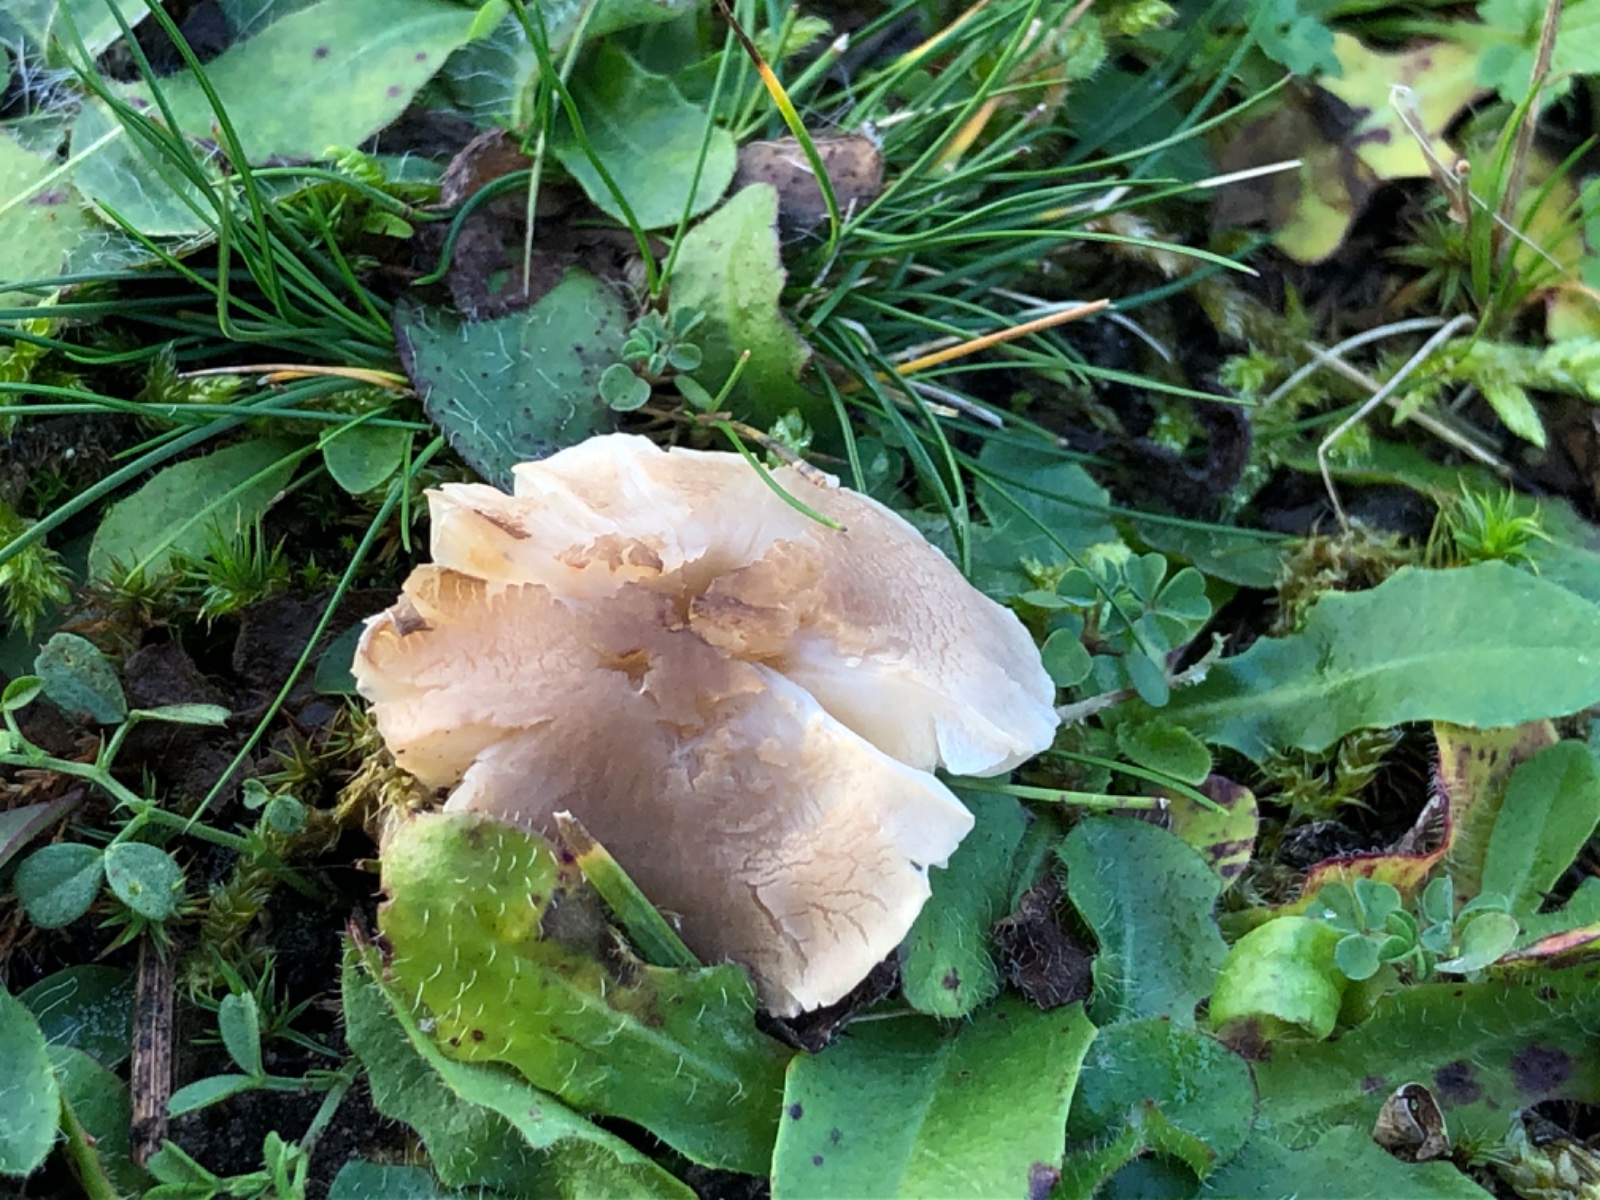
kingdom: Fungi
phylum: Basidiomycota
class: Agaricomycetes
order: Agaricales
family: Tricholomataceae
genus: Dermoloma
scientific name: Dermoloma cuneifolium
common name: eng-nonnehat
